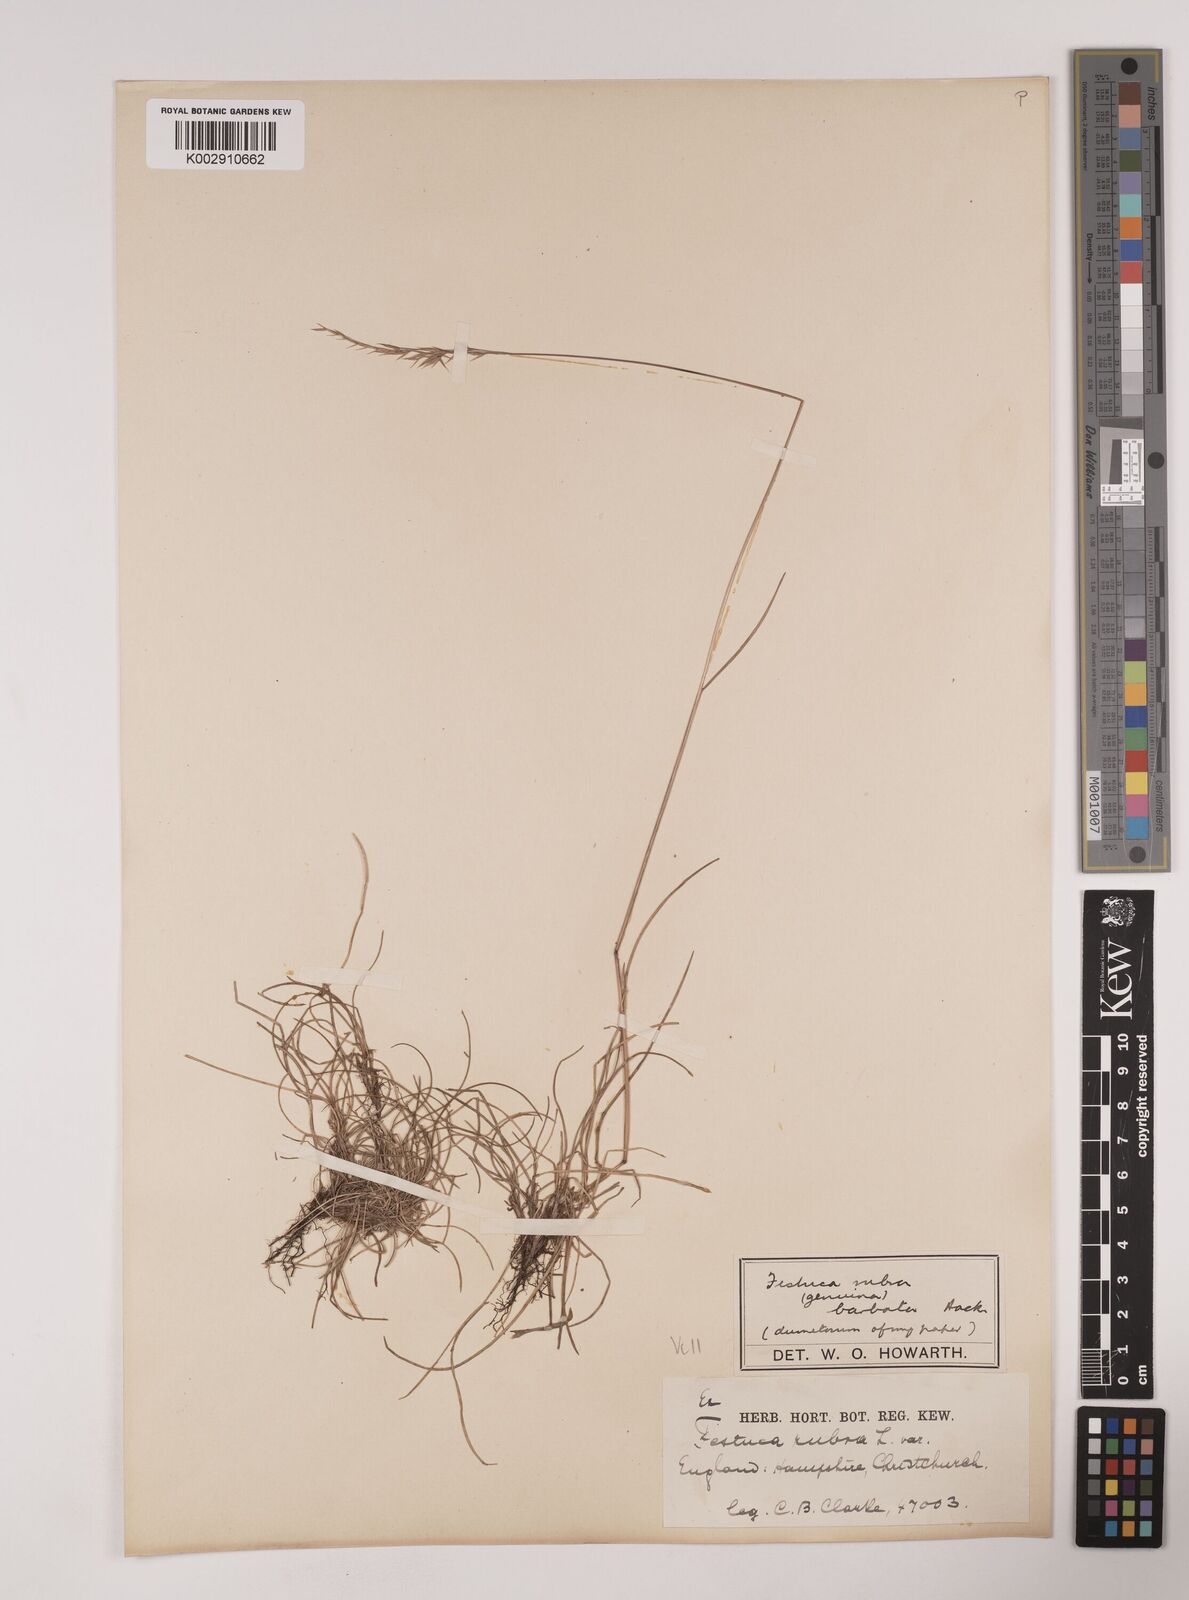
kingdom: Plantae
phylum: Tracheophyta
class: Liliopsida
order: Poales
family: Poaceae
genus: Festuca
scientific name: Festuca rubra
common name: Red fescue
